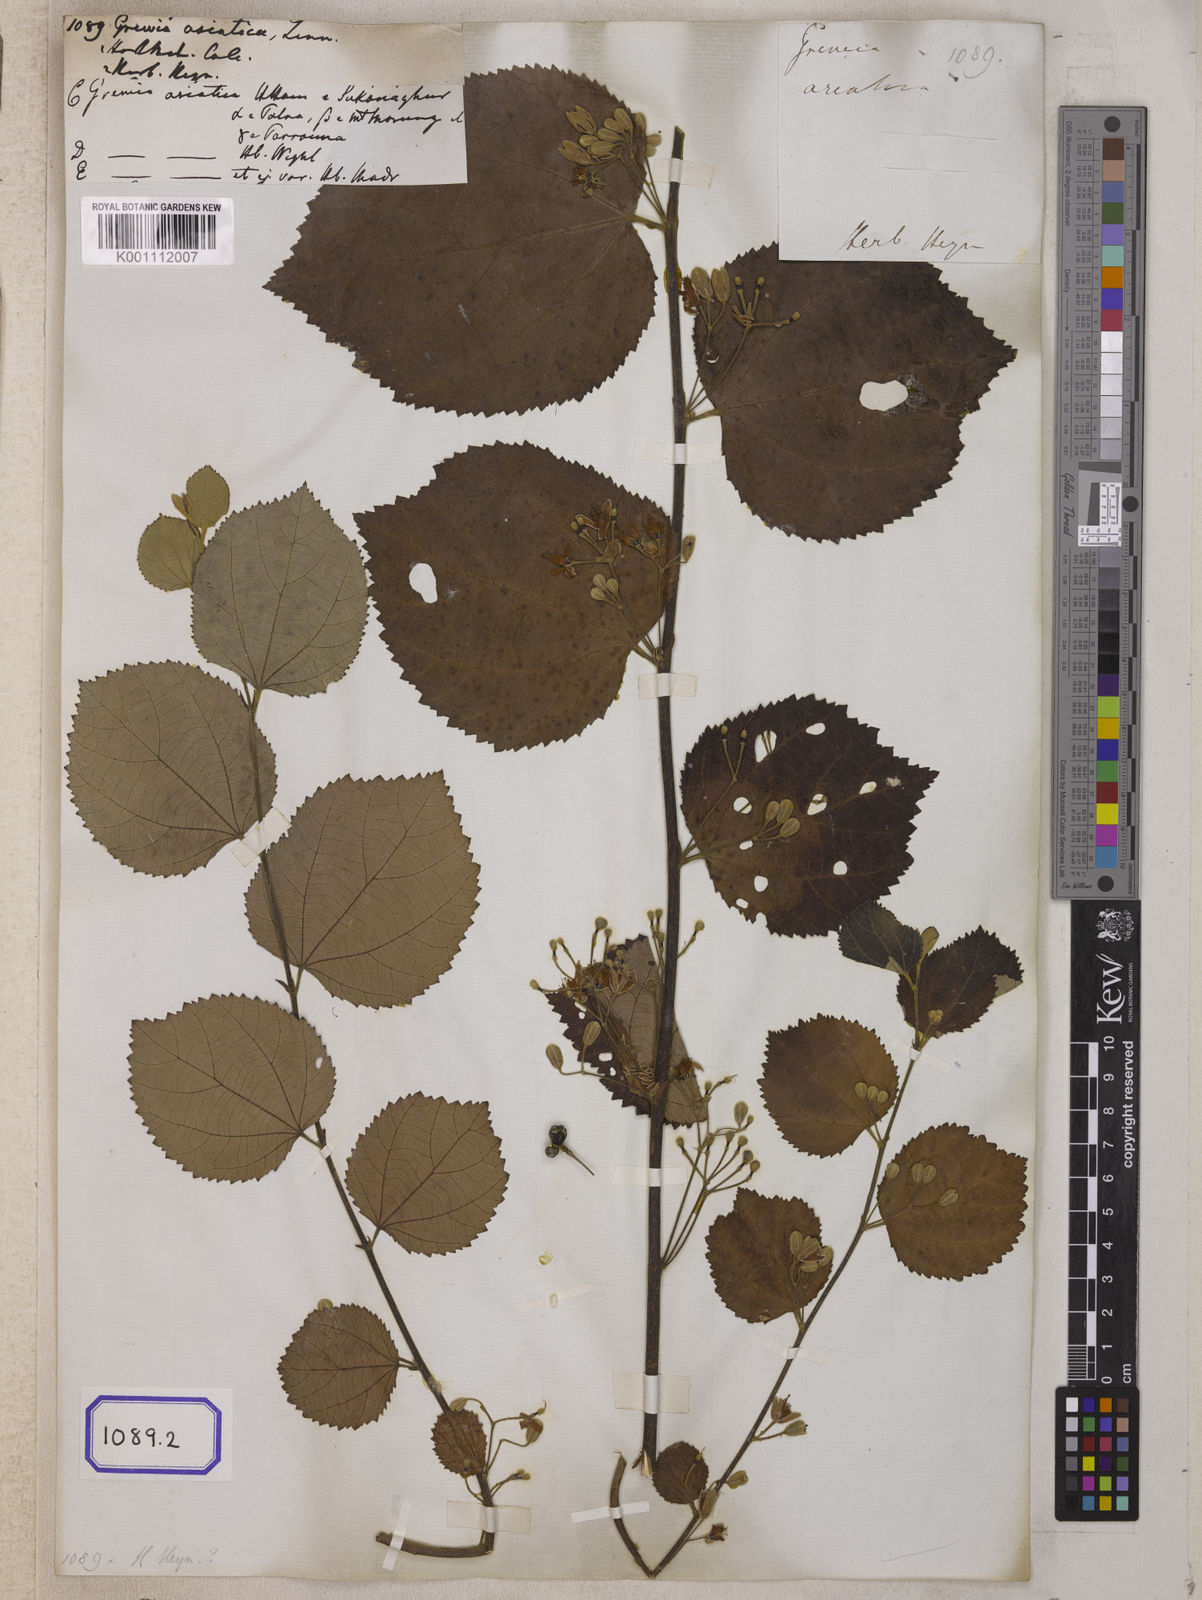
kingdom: Plantae
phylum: Tracheophyta
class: Magnoliopsida
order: Malvales
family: Malvaceae
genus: Grewia
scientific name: Grewia asiatica
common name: Phalsa
